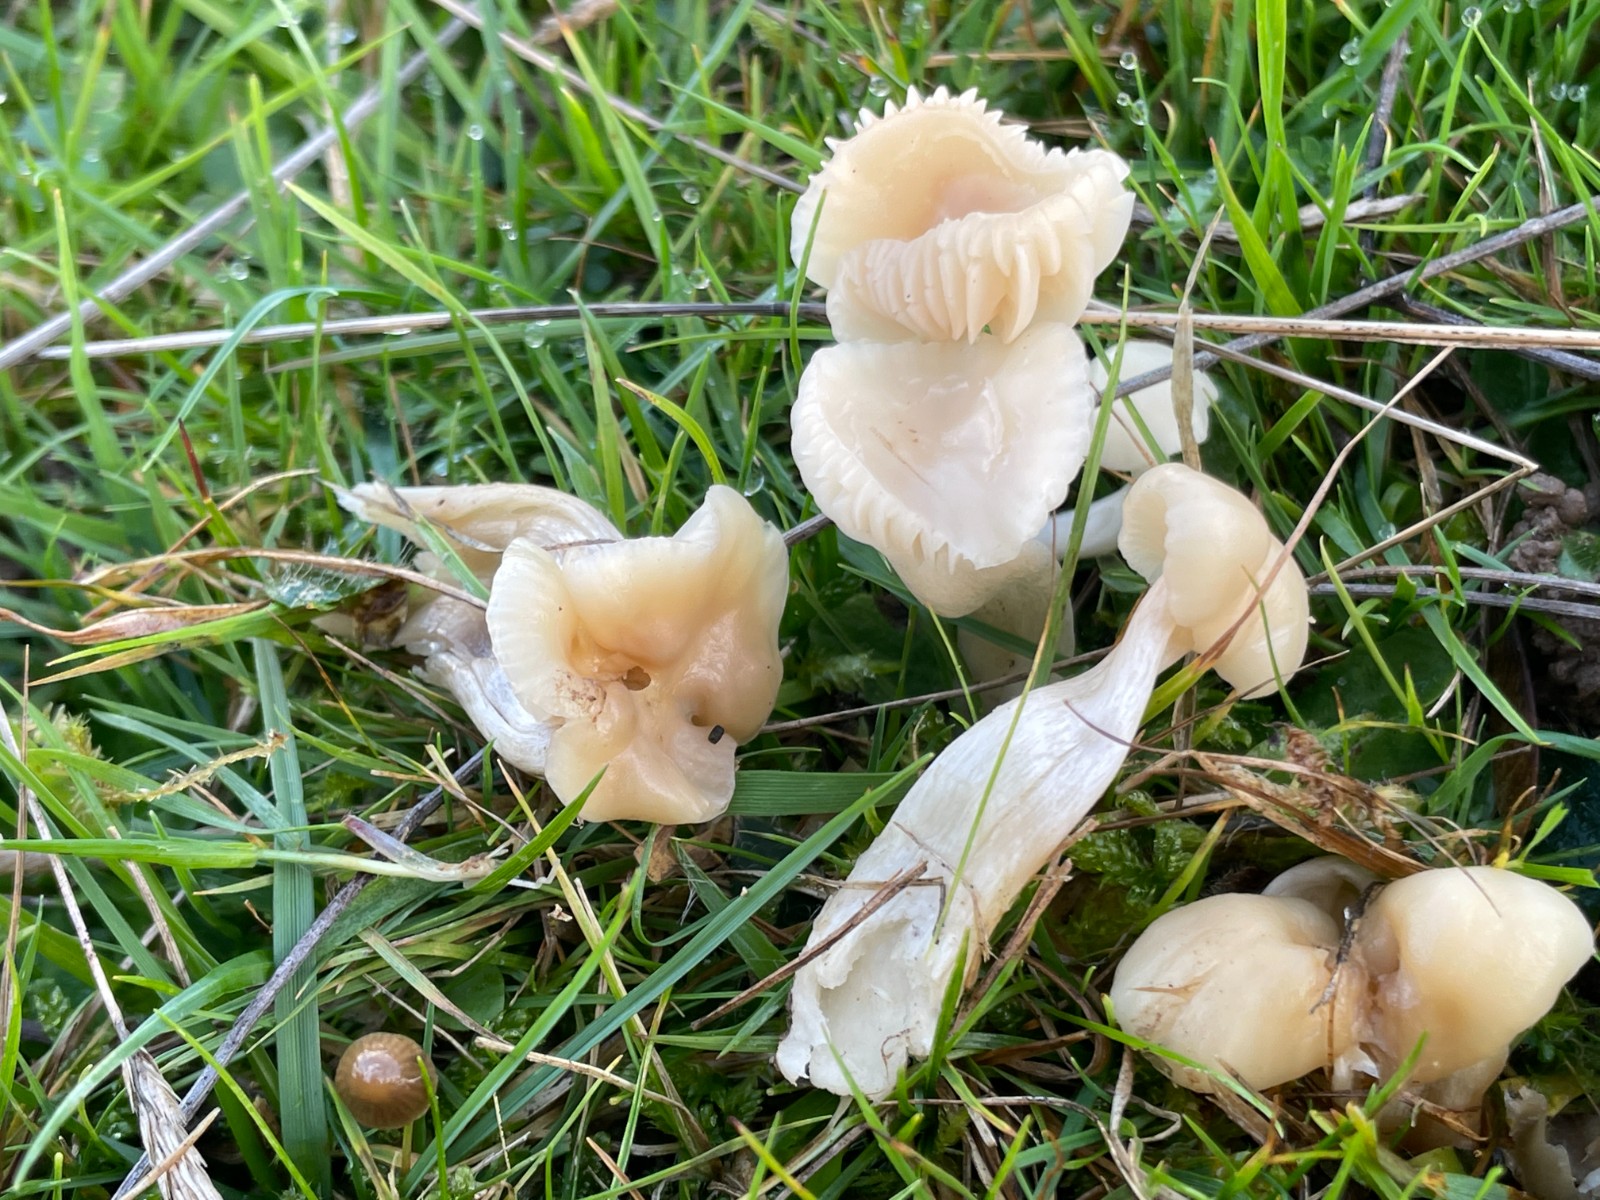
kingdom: Fungi
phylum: Basidiomycota
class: Agaricomycetes
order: Agaricales
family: Hygrophoraceae
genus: Cuphophyllus
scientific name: Cuphophyllus russocoriaceus
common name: ruslæder-vokshat
